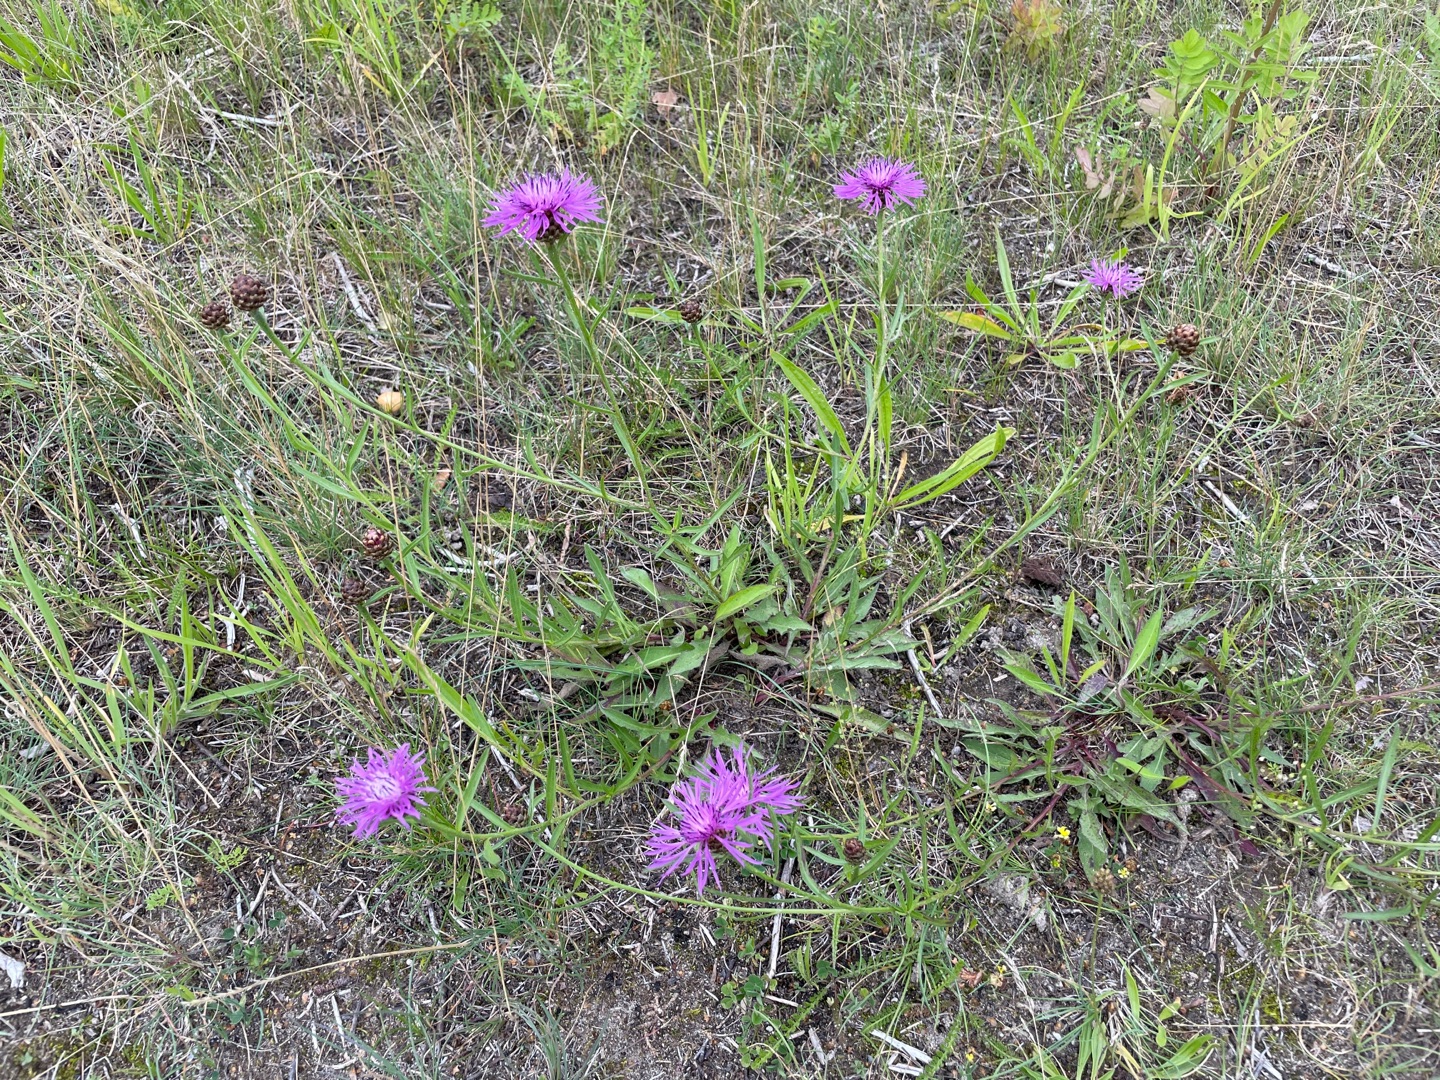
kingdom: Plantae
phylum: Tracheophyta
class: Magnoliopsida
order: Asterales
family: Asteraceae
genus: Centaurea
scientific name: Centaurea jacea
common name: Almindelig knopurt
